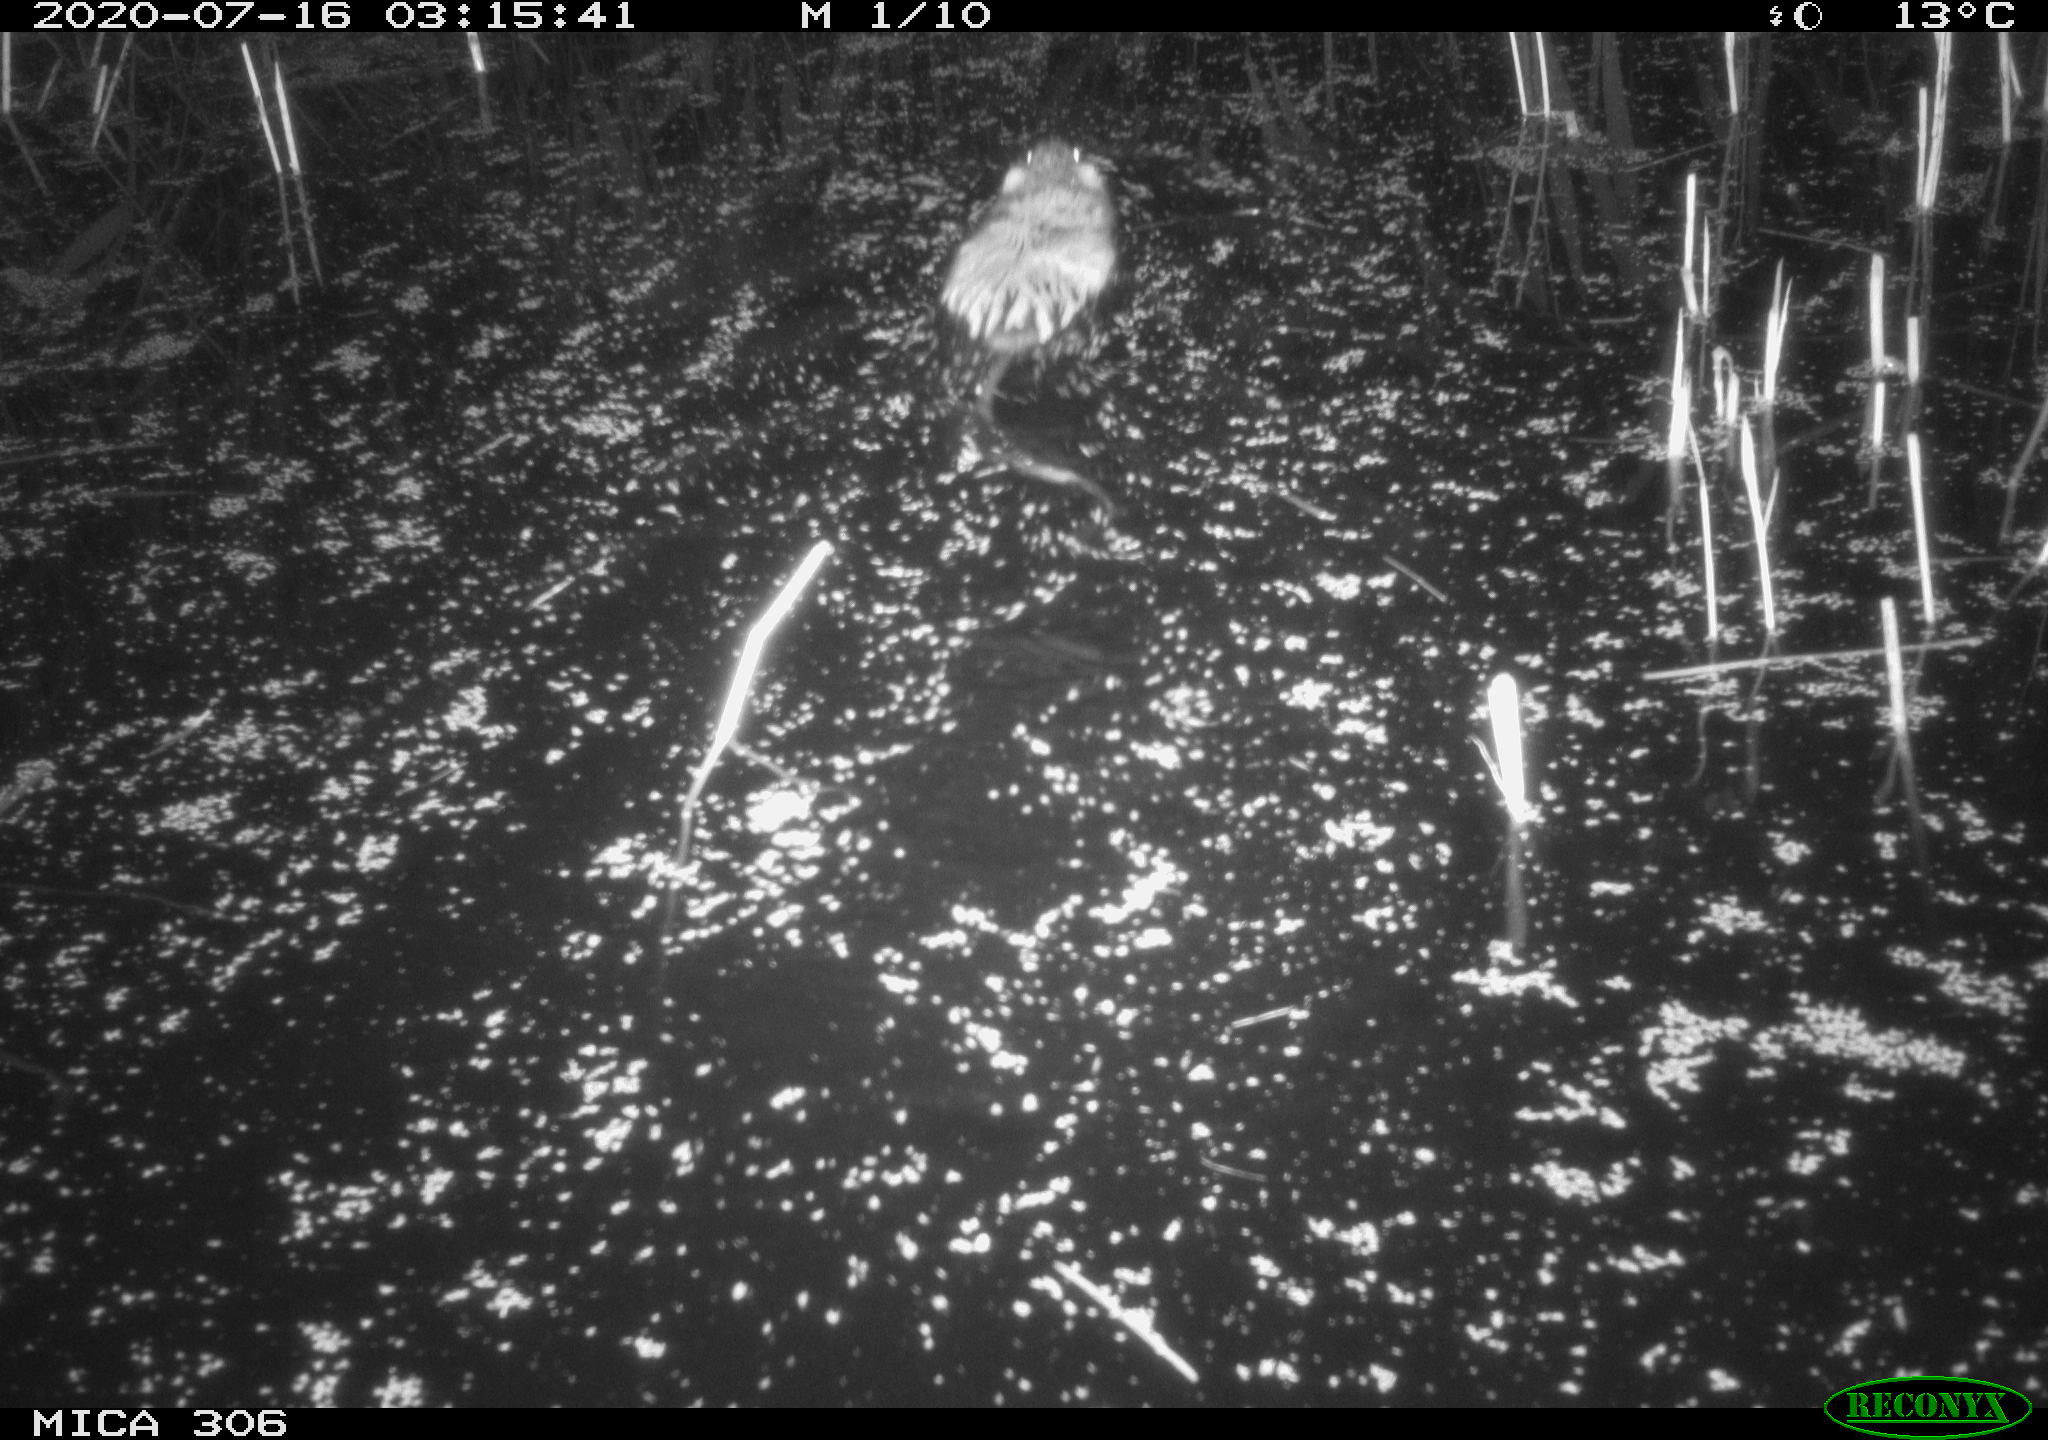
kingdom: Animalia
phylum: Chordata
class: Mammalia
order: Rodentia
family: Cricetidae
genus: Ondatra
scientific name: Ondatra zibethicus
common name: Muskrat
